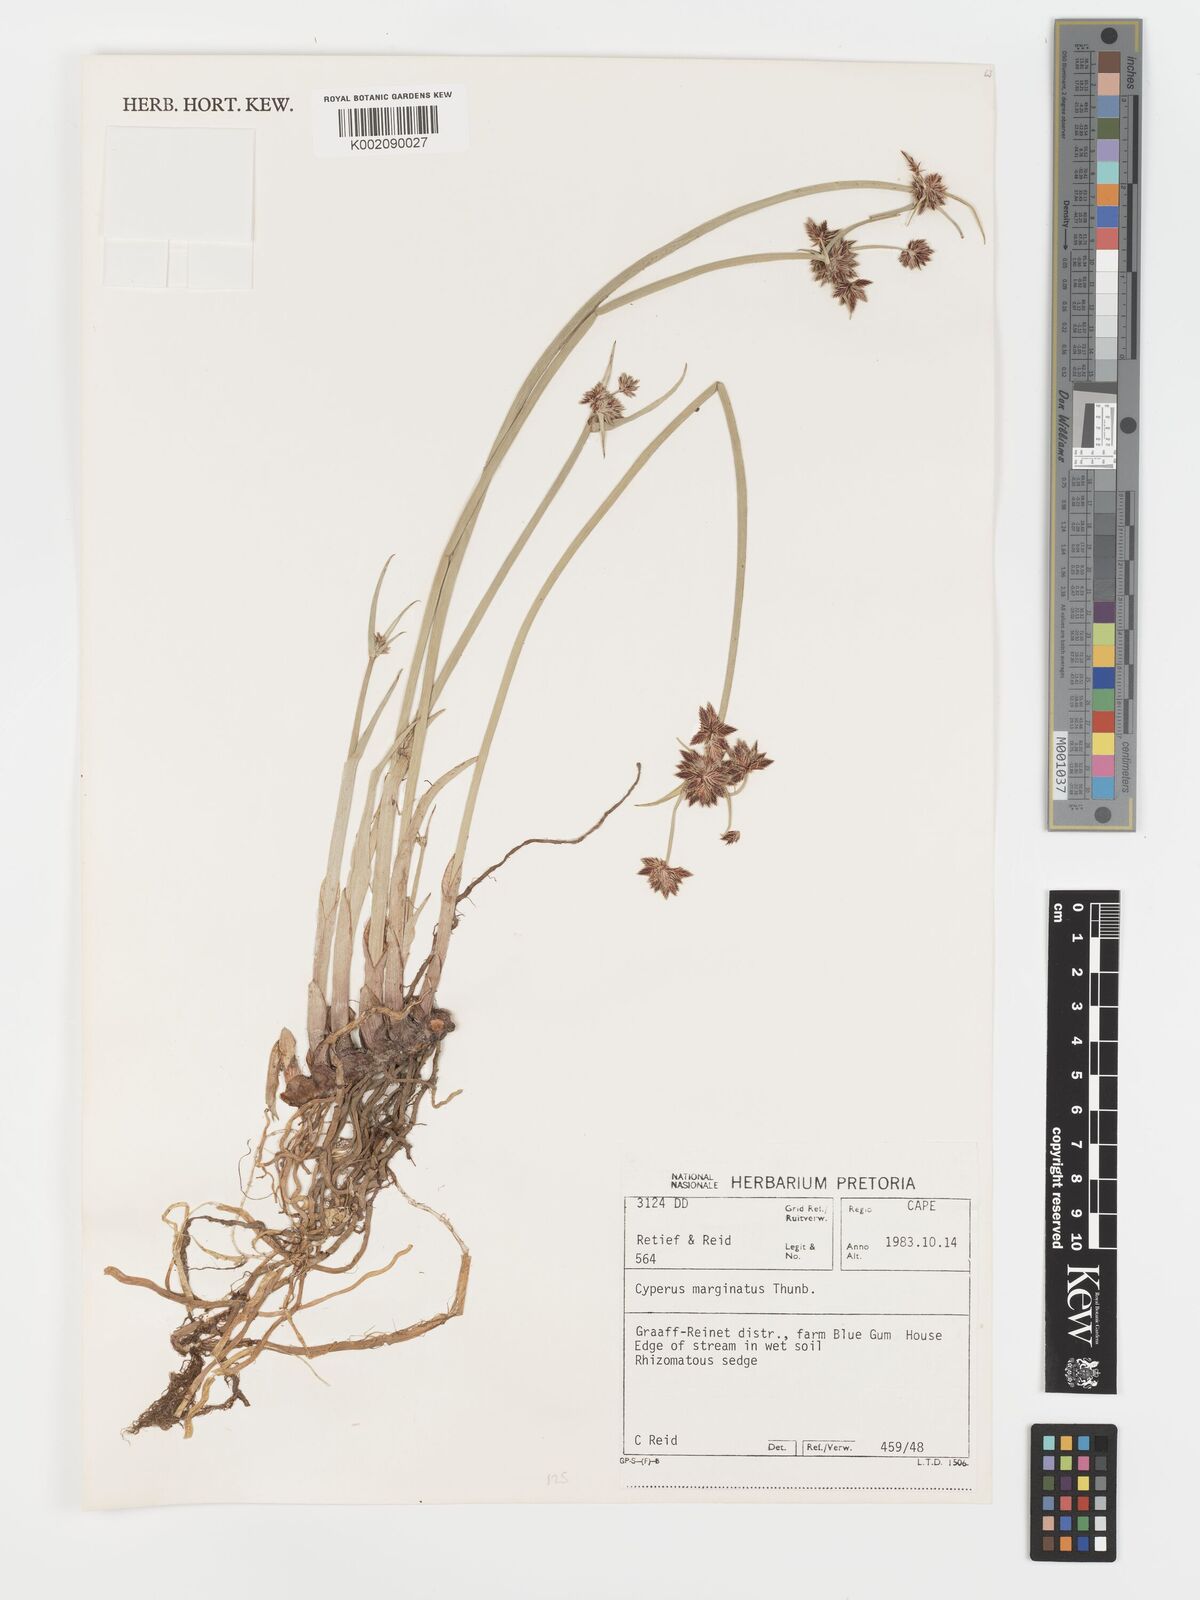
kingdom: Plantae
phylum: Tracheophyta
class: Liliopsida
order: Poales
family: Cyperaceae
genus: Cyperus
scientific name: Cyperus marginatus
